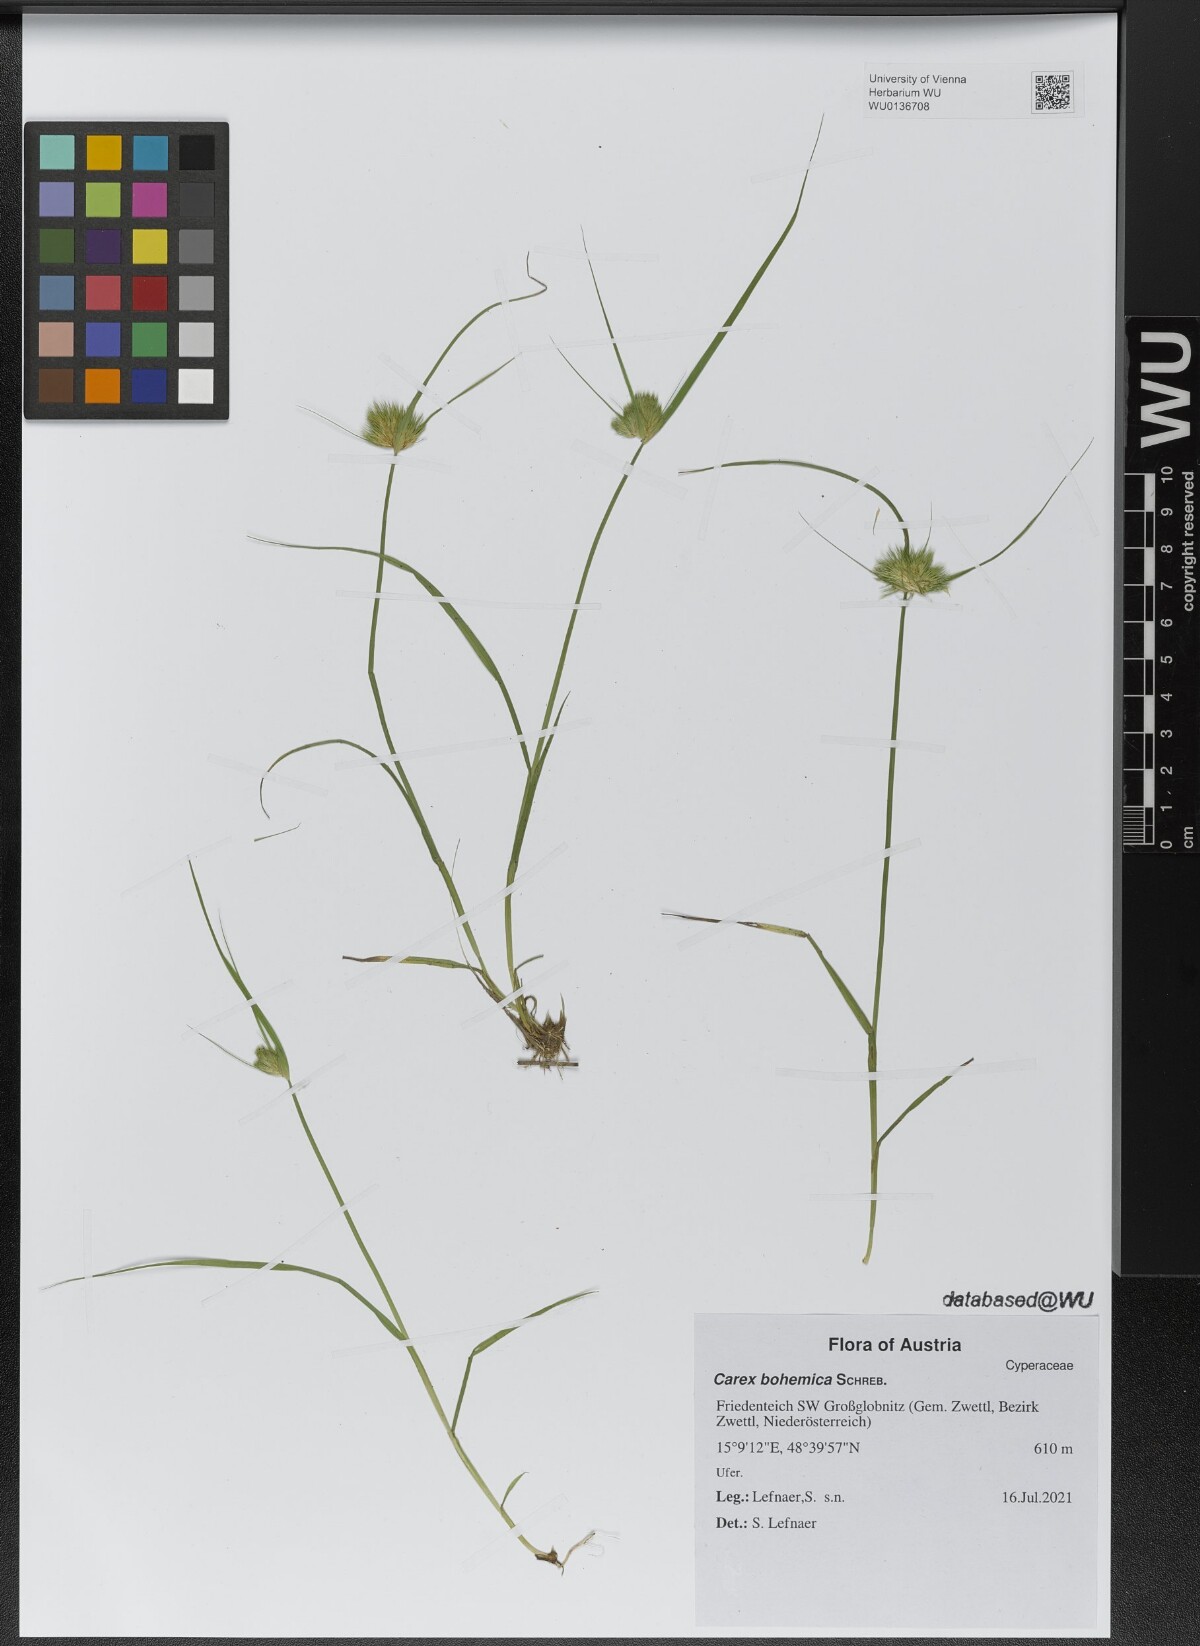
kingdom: Plantae
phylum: Tracheophyta
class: Liliopsida
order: Poales
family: Cyperaceae
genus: Carex
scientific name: Carex bohemica
